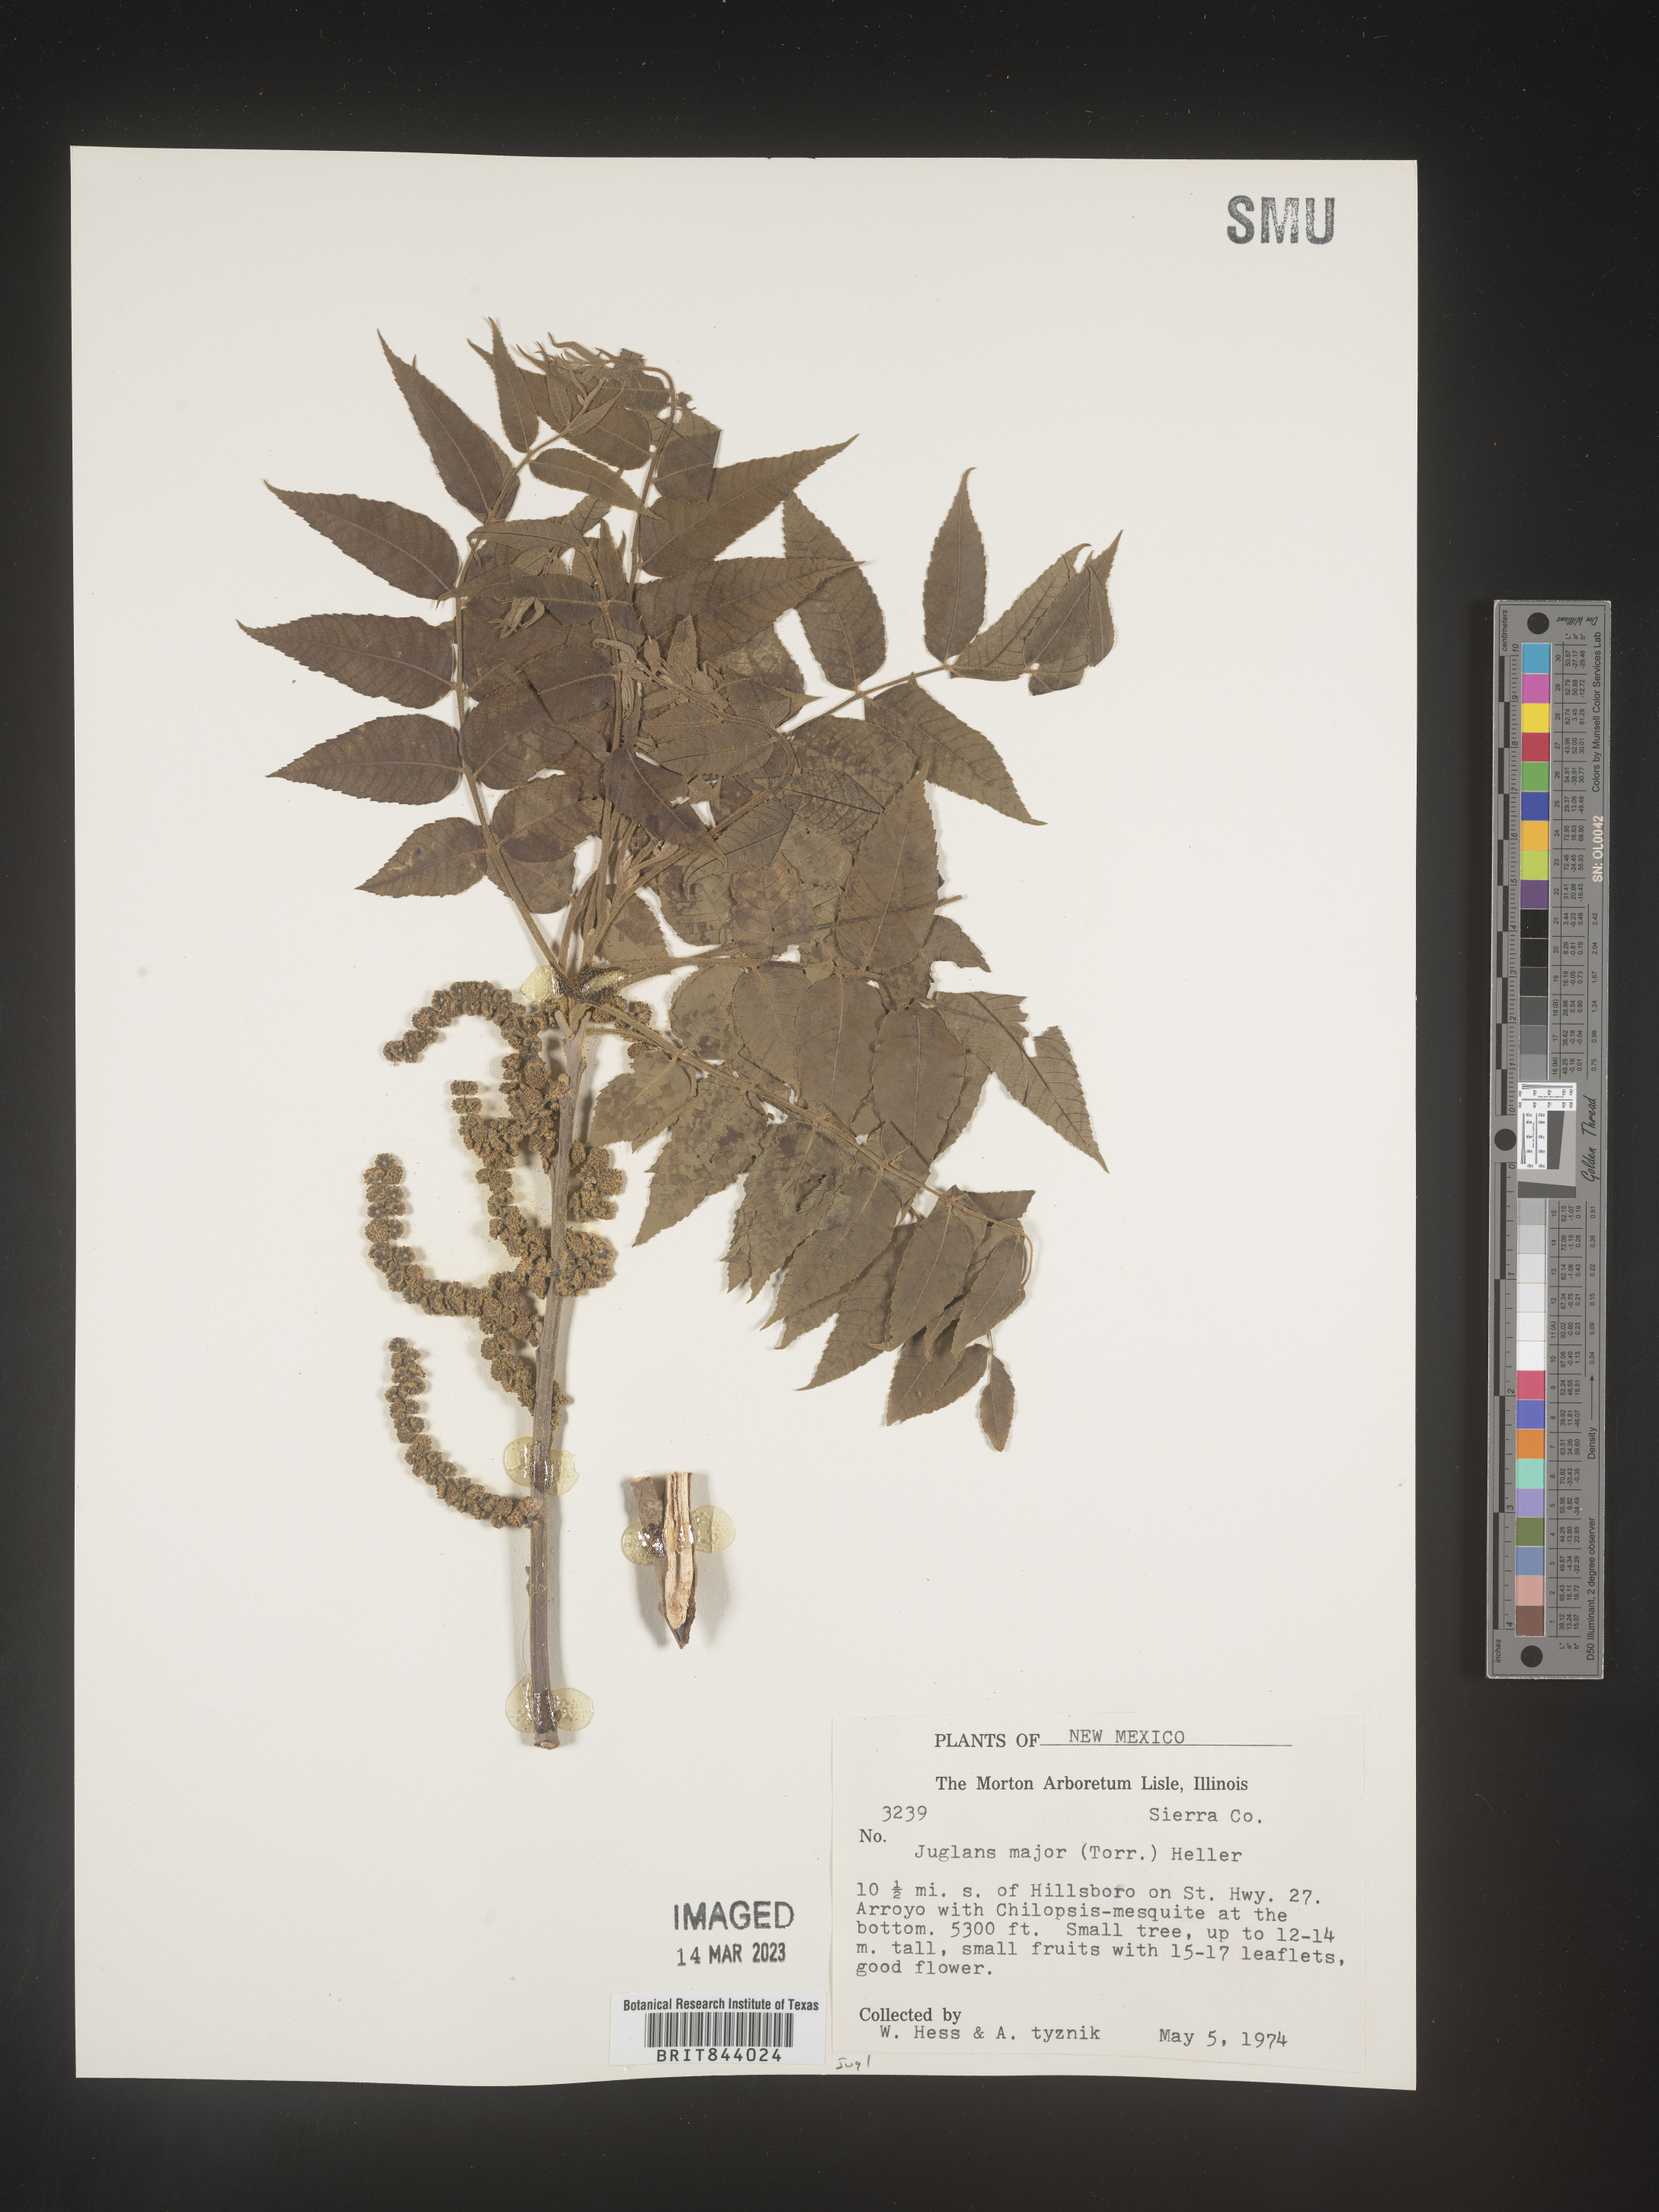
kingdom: Plantae
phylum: Tracheophyta
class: Magnoliopsida
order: Fagales
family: Juglandaceae
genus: Juglans
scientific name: Juglans microcarpa
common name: Texas walnut
